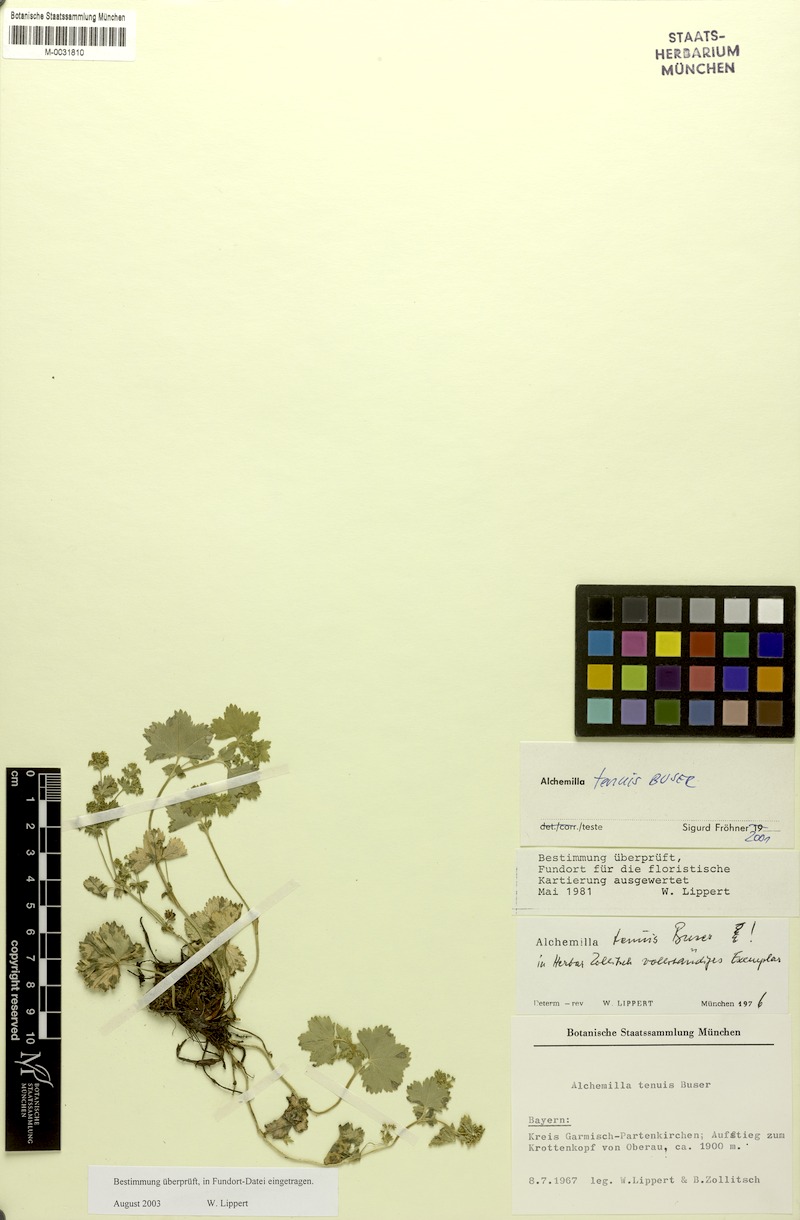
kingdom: Plantae
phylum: Tracheophyta
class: Magnoliopsida
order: Rosales
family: Rosaceae
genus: Alchemilla
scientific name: Alchemilla tenuis
